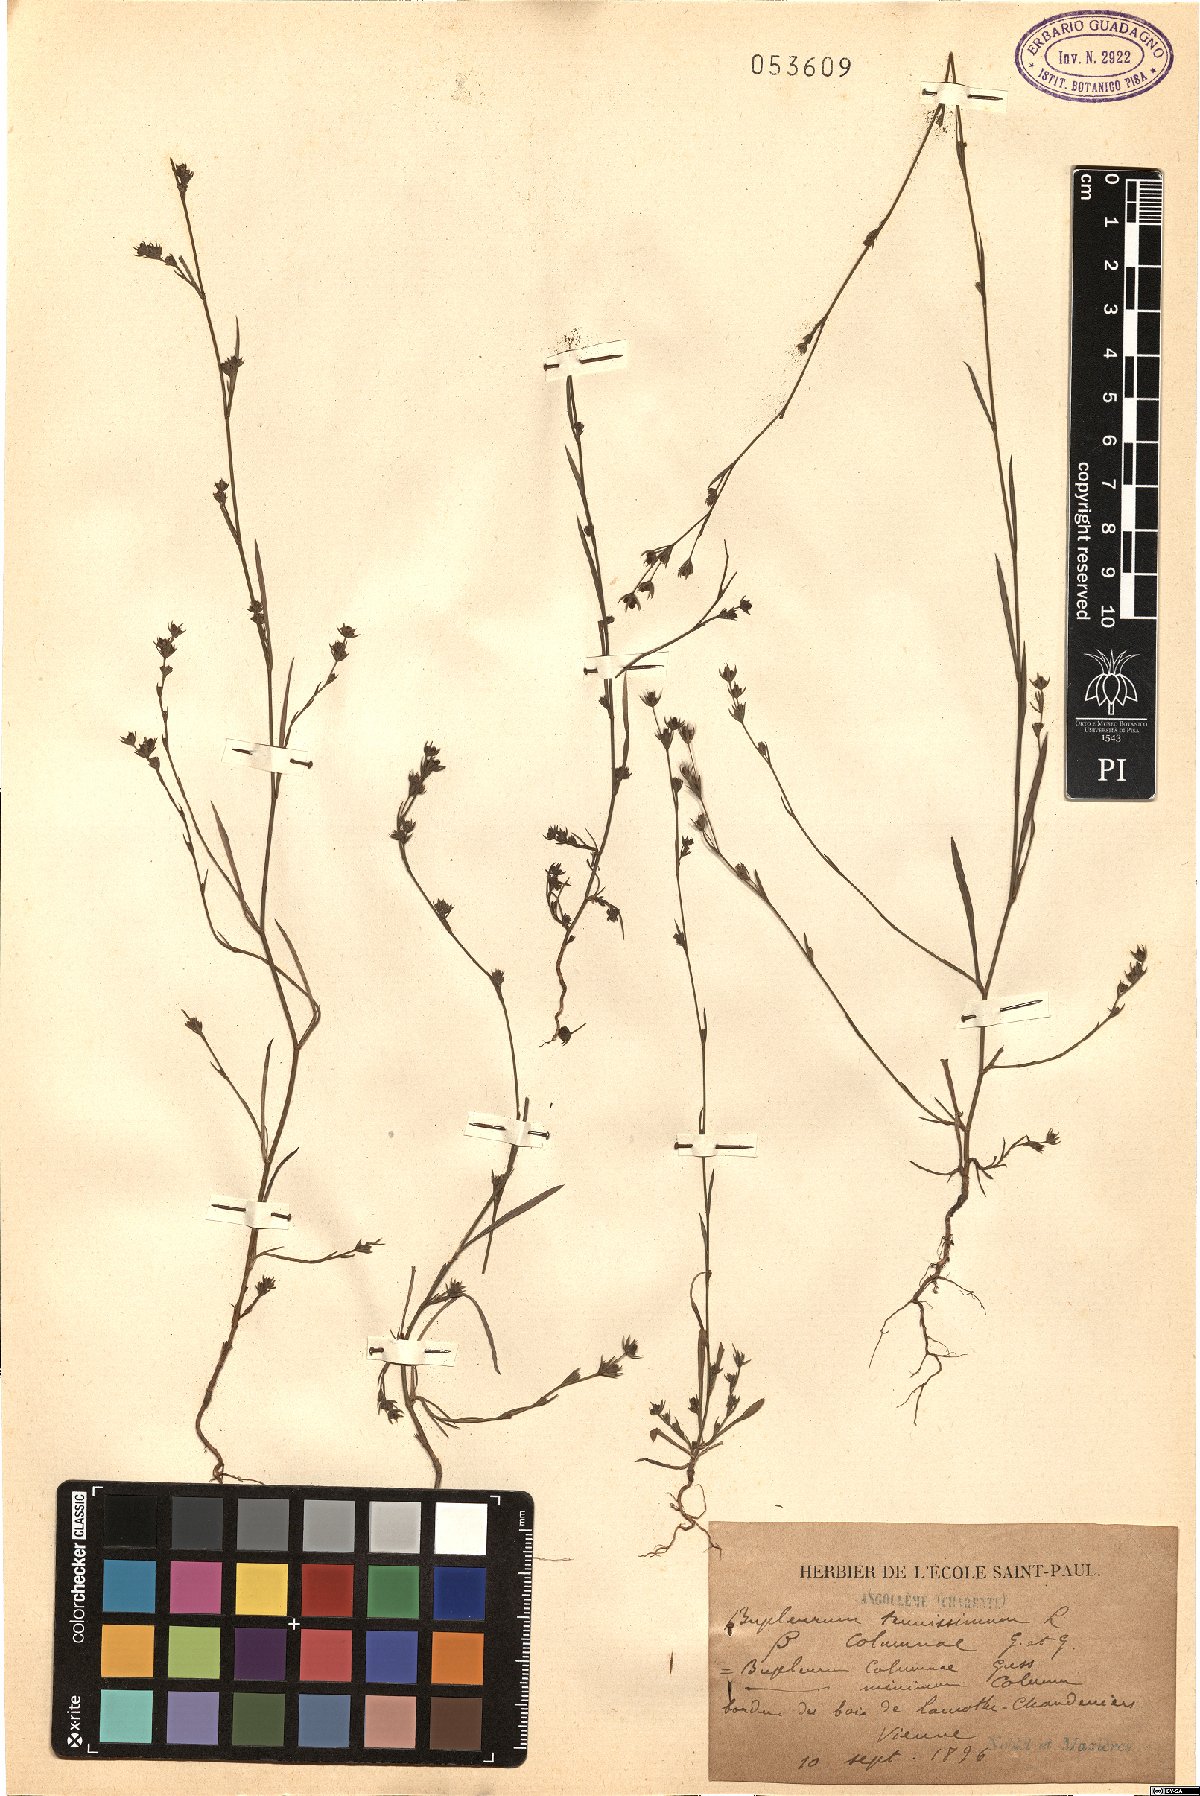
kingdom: Plantae
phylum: Tracheophyta
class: Magnoliopsida
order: Apiales
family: Apiaceae
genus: Bupleurum
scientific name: Bupleurum tenuissimum
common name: Slender hare's-ear
